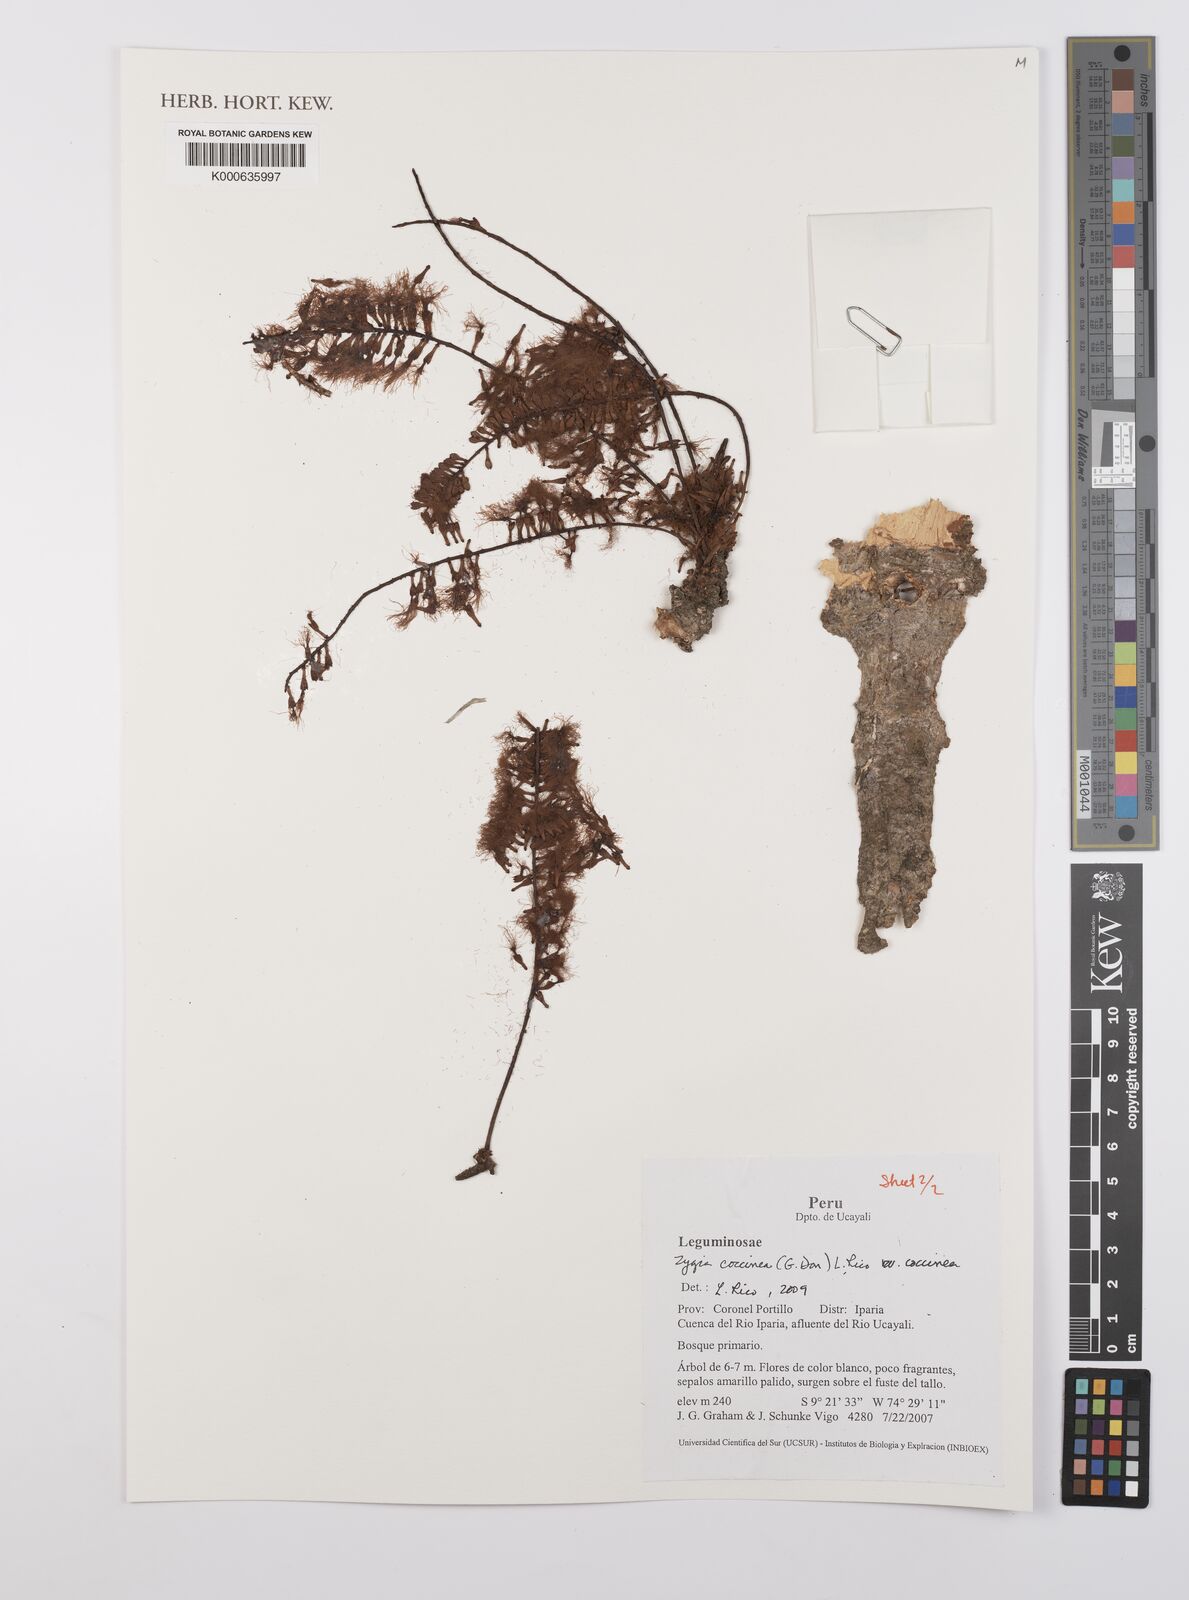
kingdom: Plantae
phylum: Tracheophyta
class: Magnoliopsida
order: Fabales
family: Fabaceae
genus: Zygia
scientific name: Zygia coccinea
